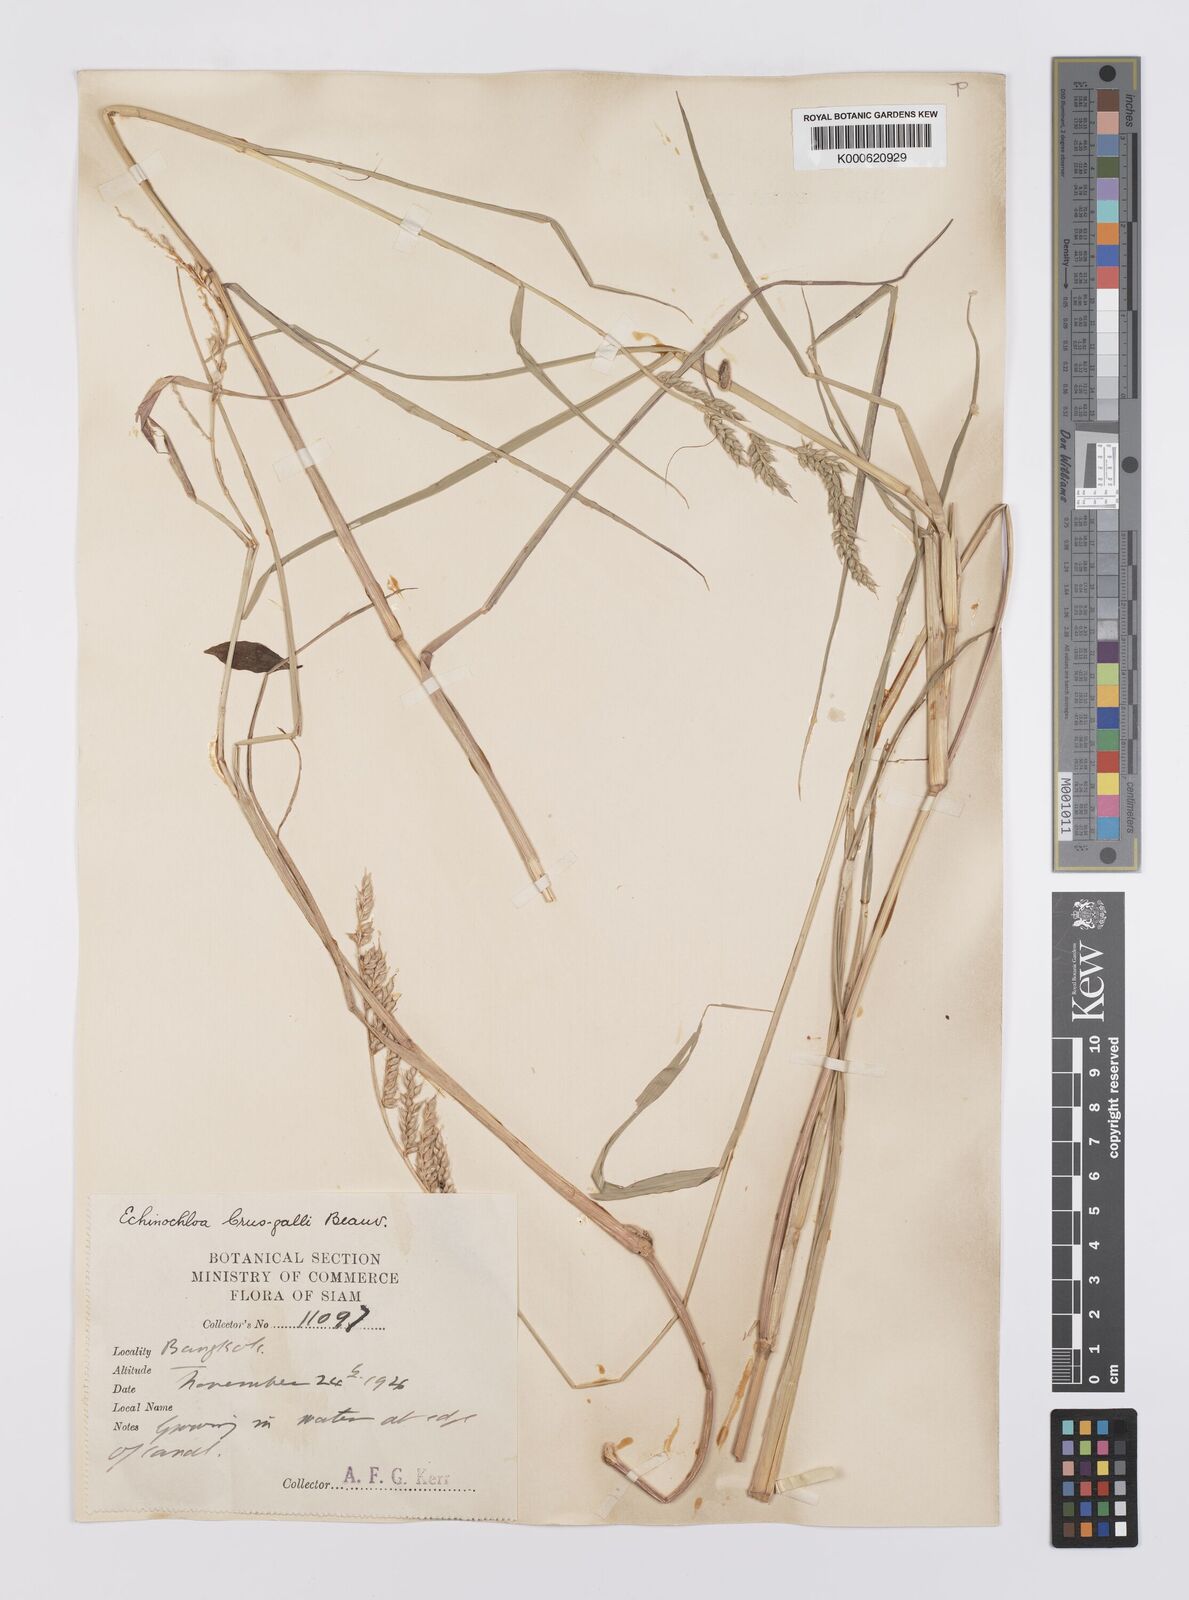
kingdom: Plantae
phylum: Tracheophyta
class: Liliopsida
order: Poales
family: Poaceae
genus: Echinochloa
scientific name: Echinochloa picta
